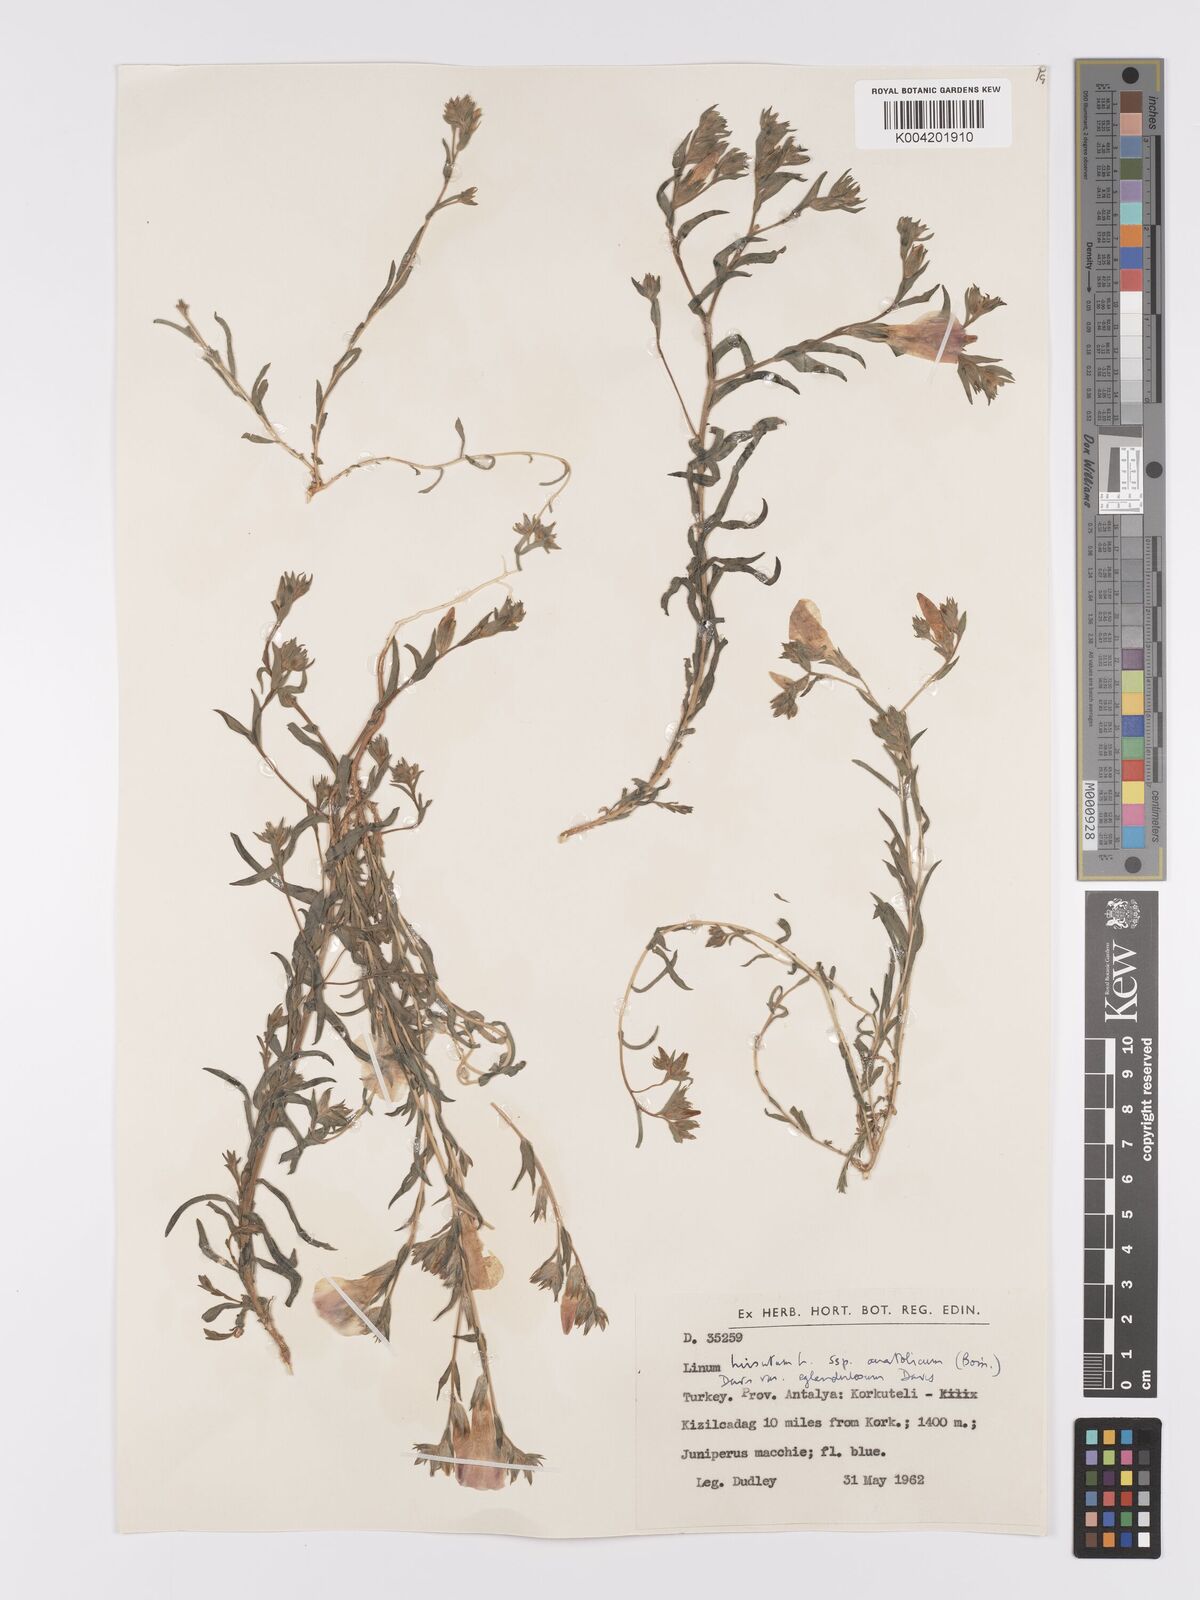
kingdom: Plantae
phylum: Tracheophyta
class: Magnoliopsida
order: Malpighiales
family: Linaceae
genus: Linum
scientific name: Linum
